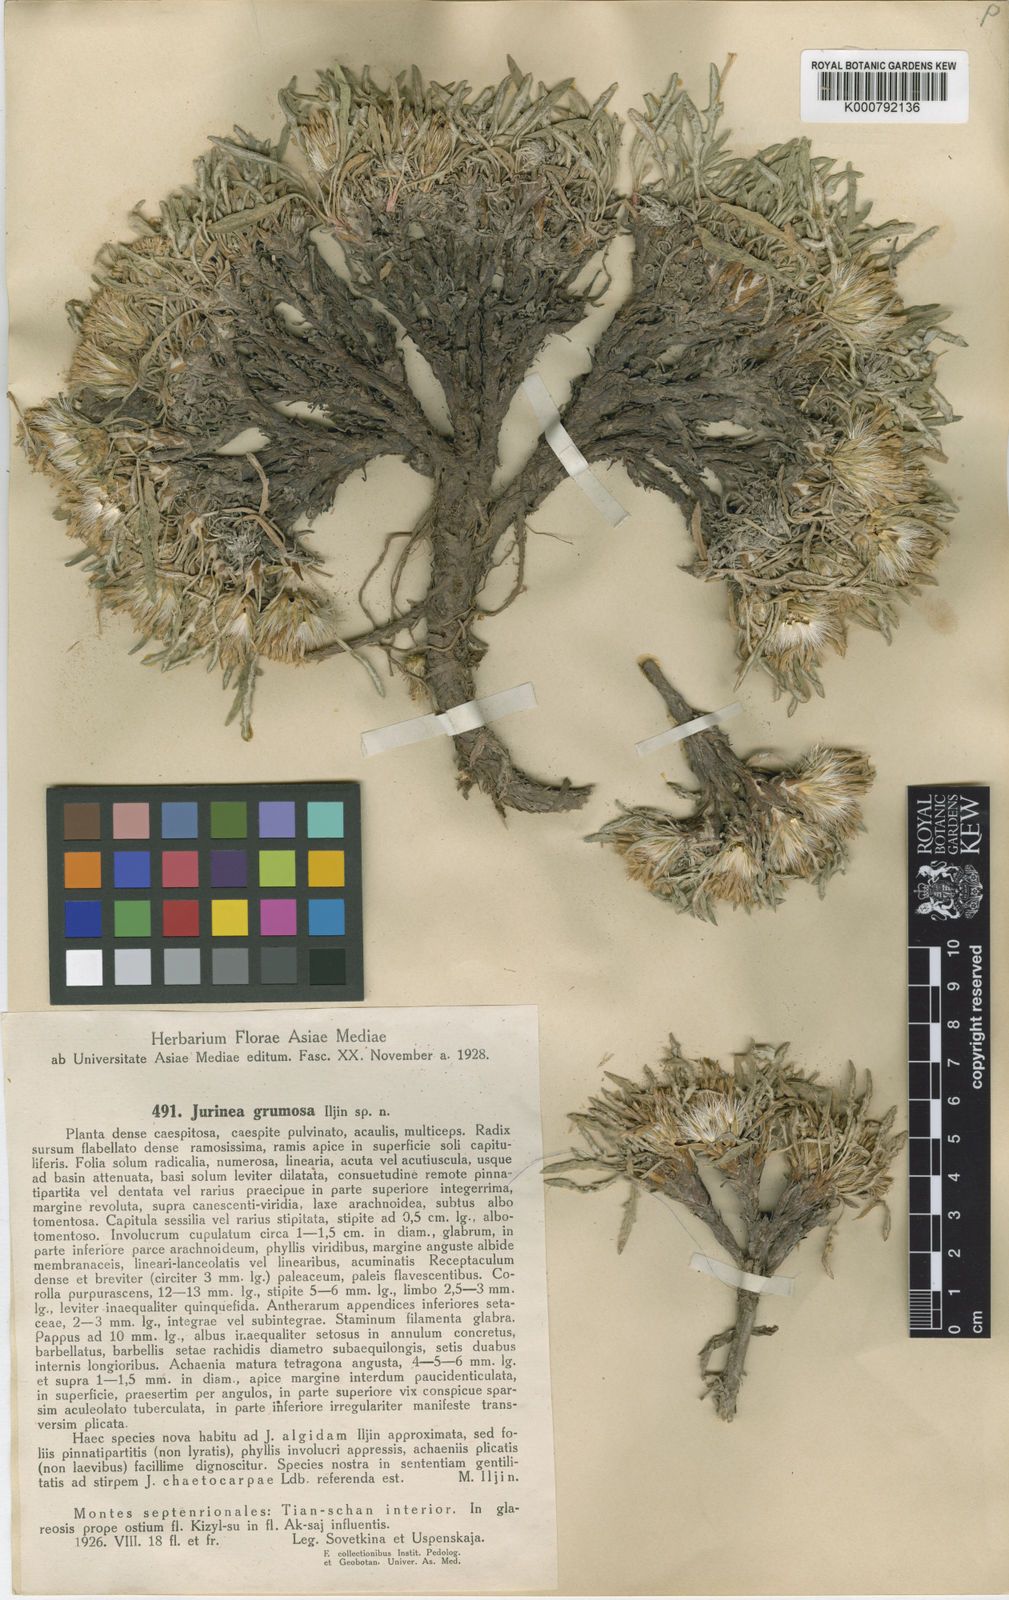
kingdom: Plantae
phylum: Tracheophyta
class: Magnoliopsida
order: Asterales
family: Asteraceae
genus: Jurinea
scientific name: Jurinea grumosa
